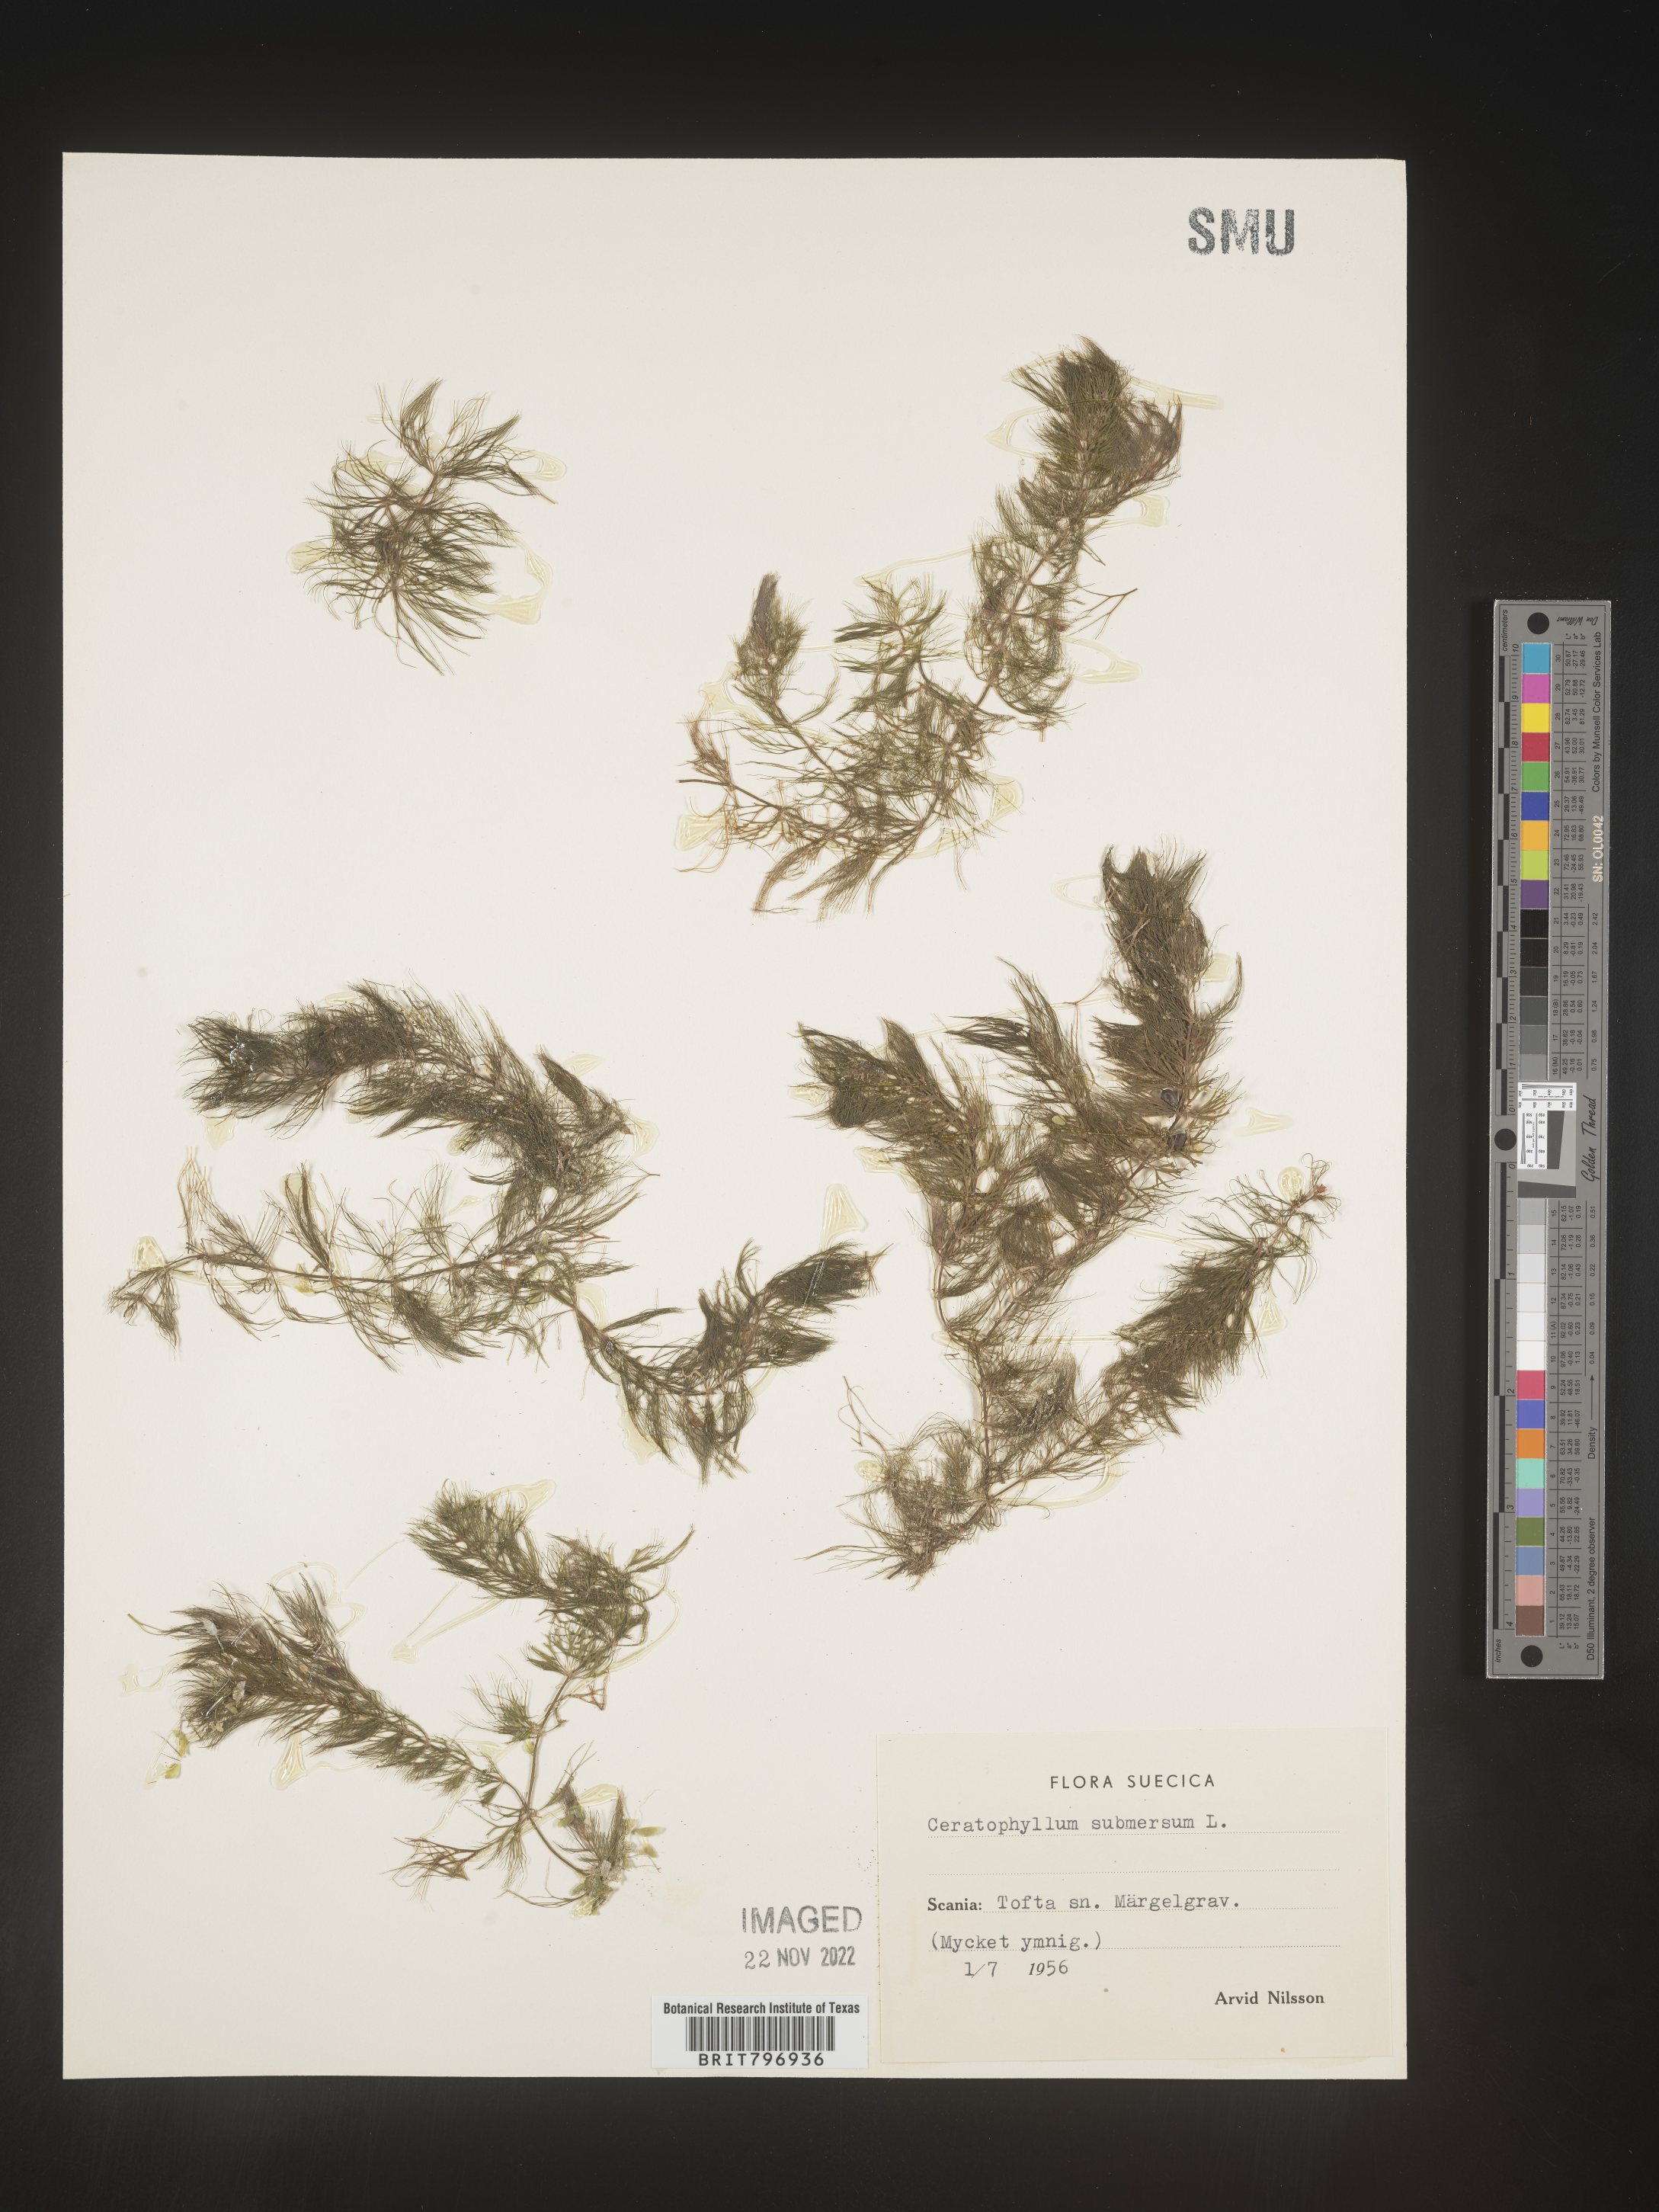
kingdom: Plantae
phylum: Tracheophyta
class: Magnoliopsida
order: Ceratophyllales
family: Ceratophyllaceae
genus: Ceratophyllum
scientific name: Ceratophyllum
